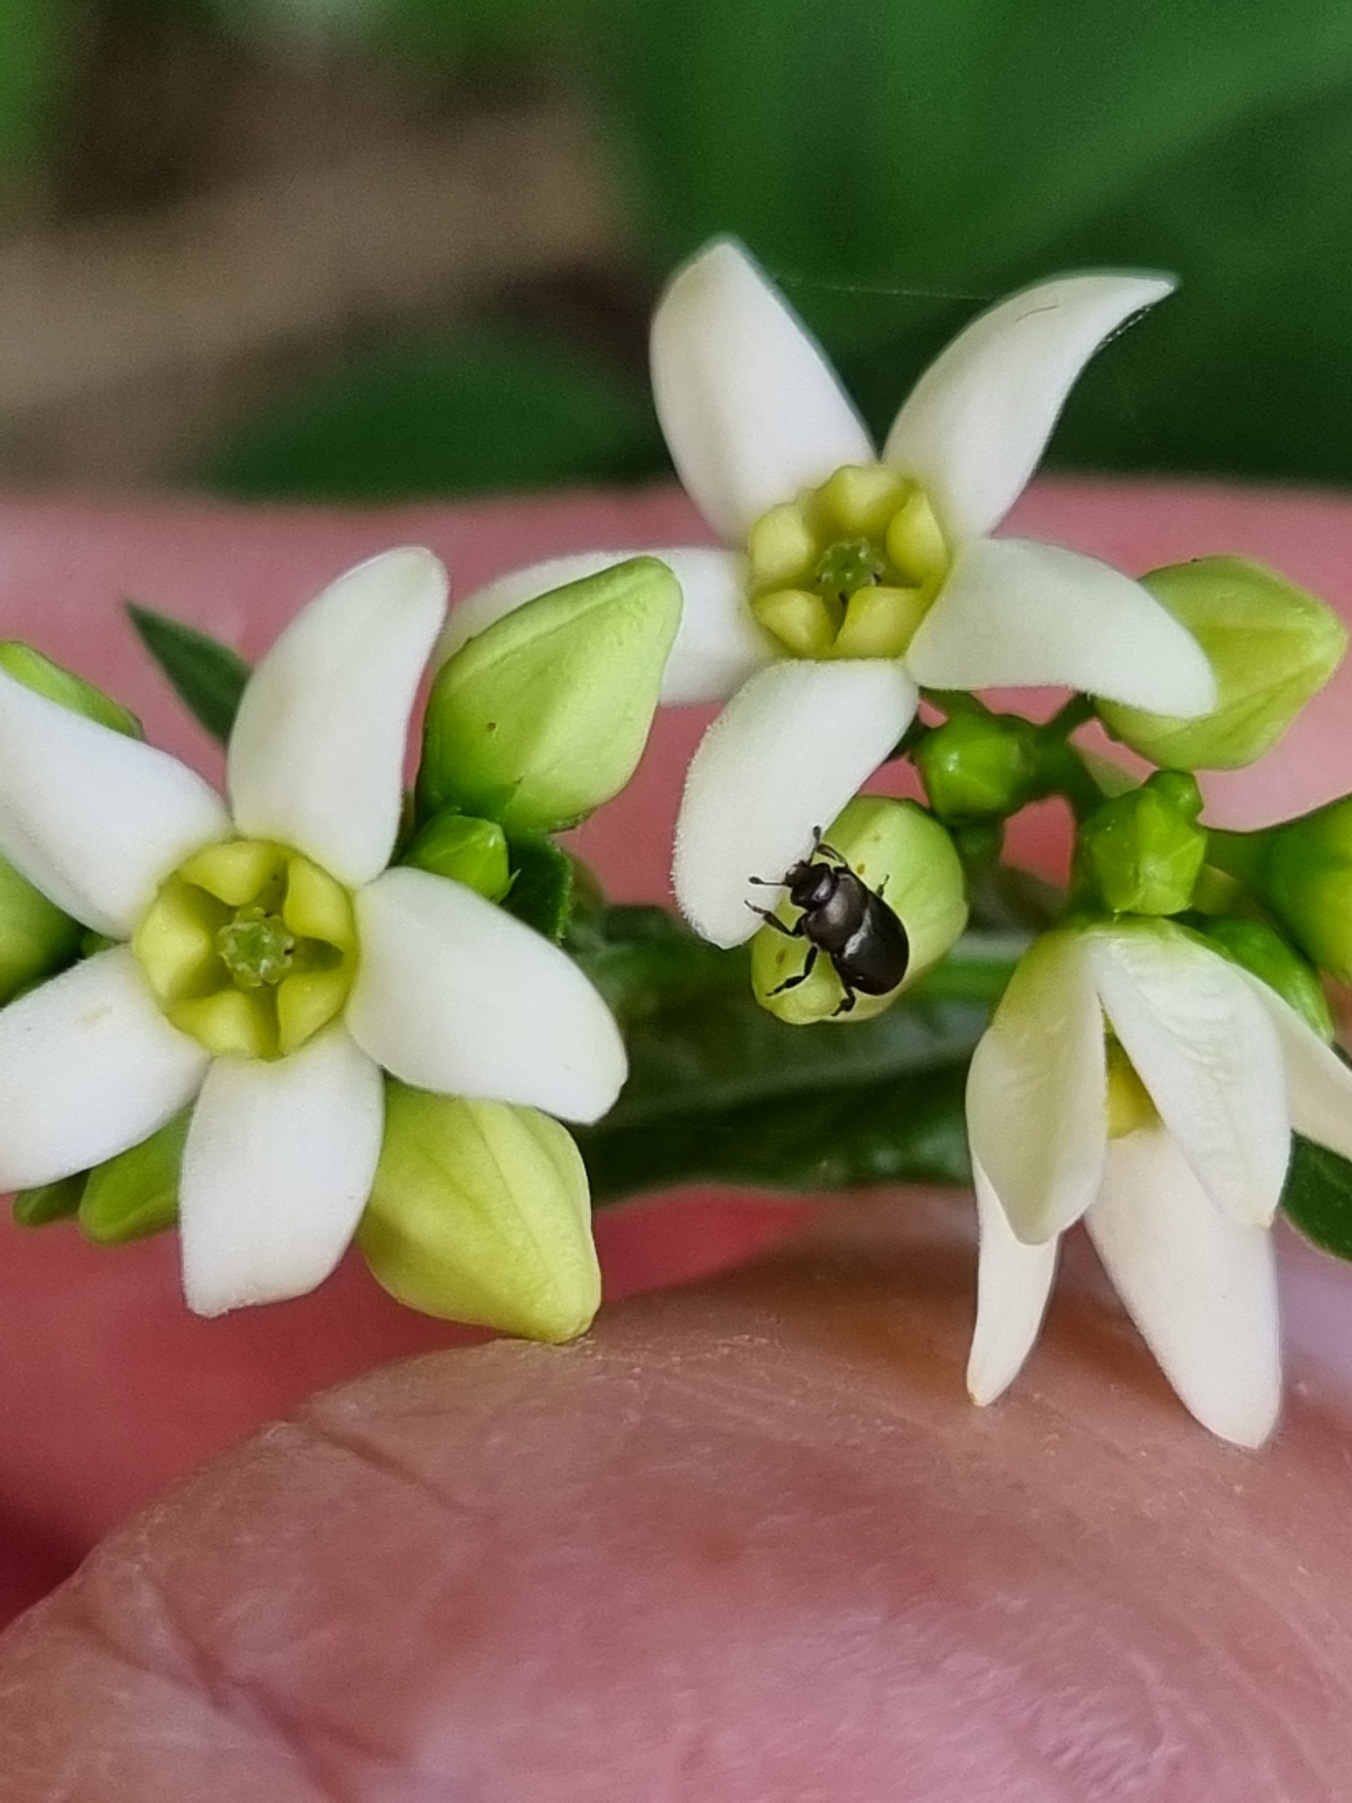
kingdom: Plantae
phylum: Tracheophyta
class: Magnoliopsida
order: Gentianales
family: Apocynaceae
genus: Vincetoxicum
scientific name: Vincetoxicum hirundinaria
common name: Svalerod
